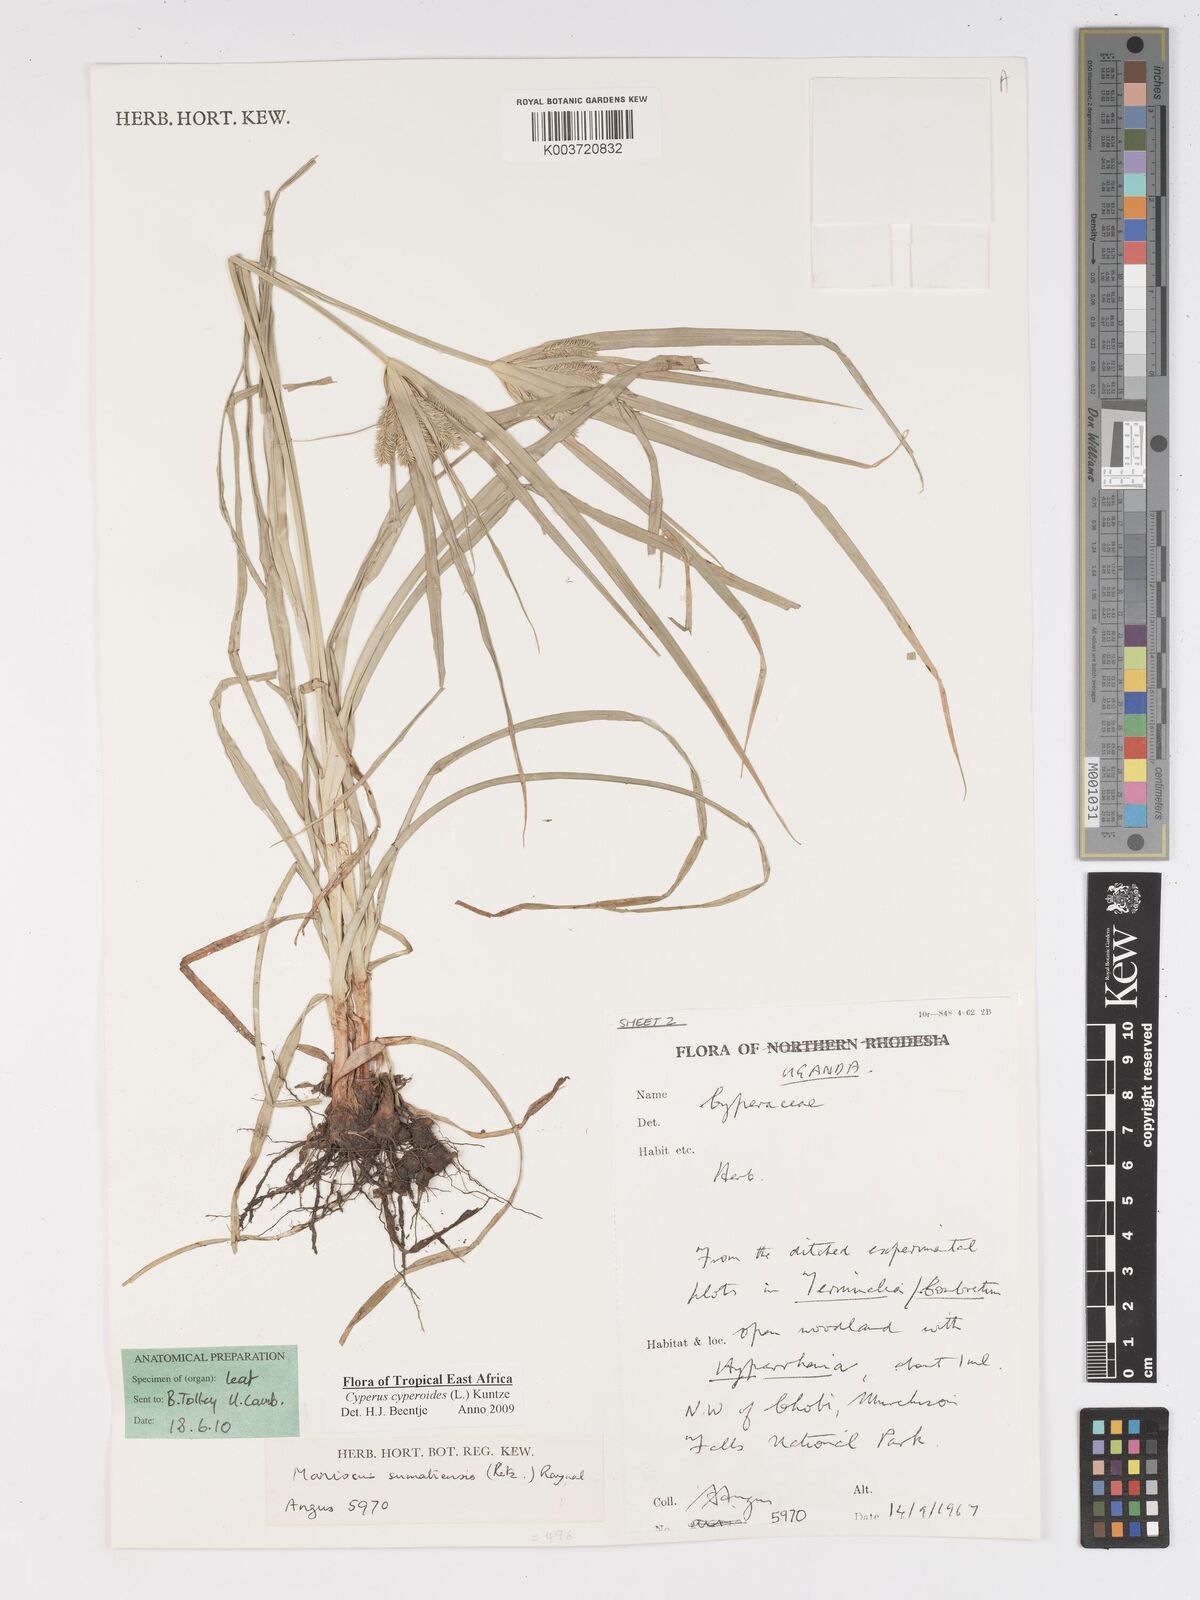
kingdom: Plantae
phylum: Tracheophyta
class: Liliopsida
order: Poales
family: Cyperaceae
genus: Cyperus
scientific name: Cyperus cyperoides
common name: Pacific island flat sedge
